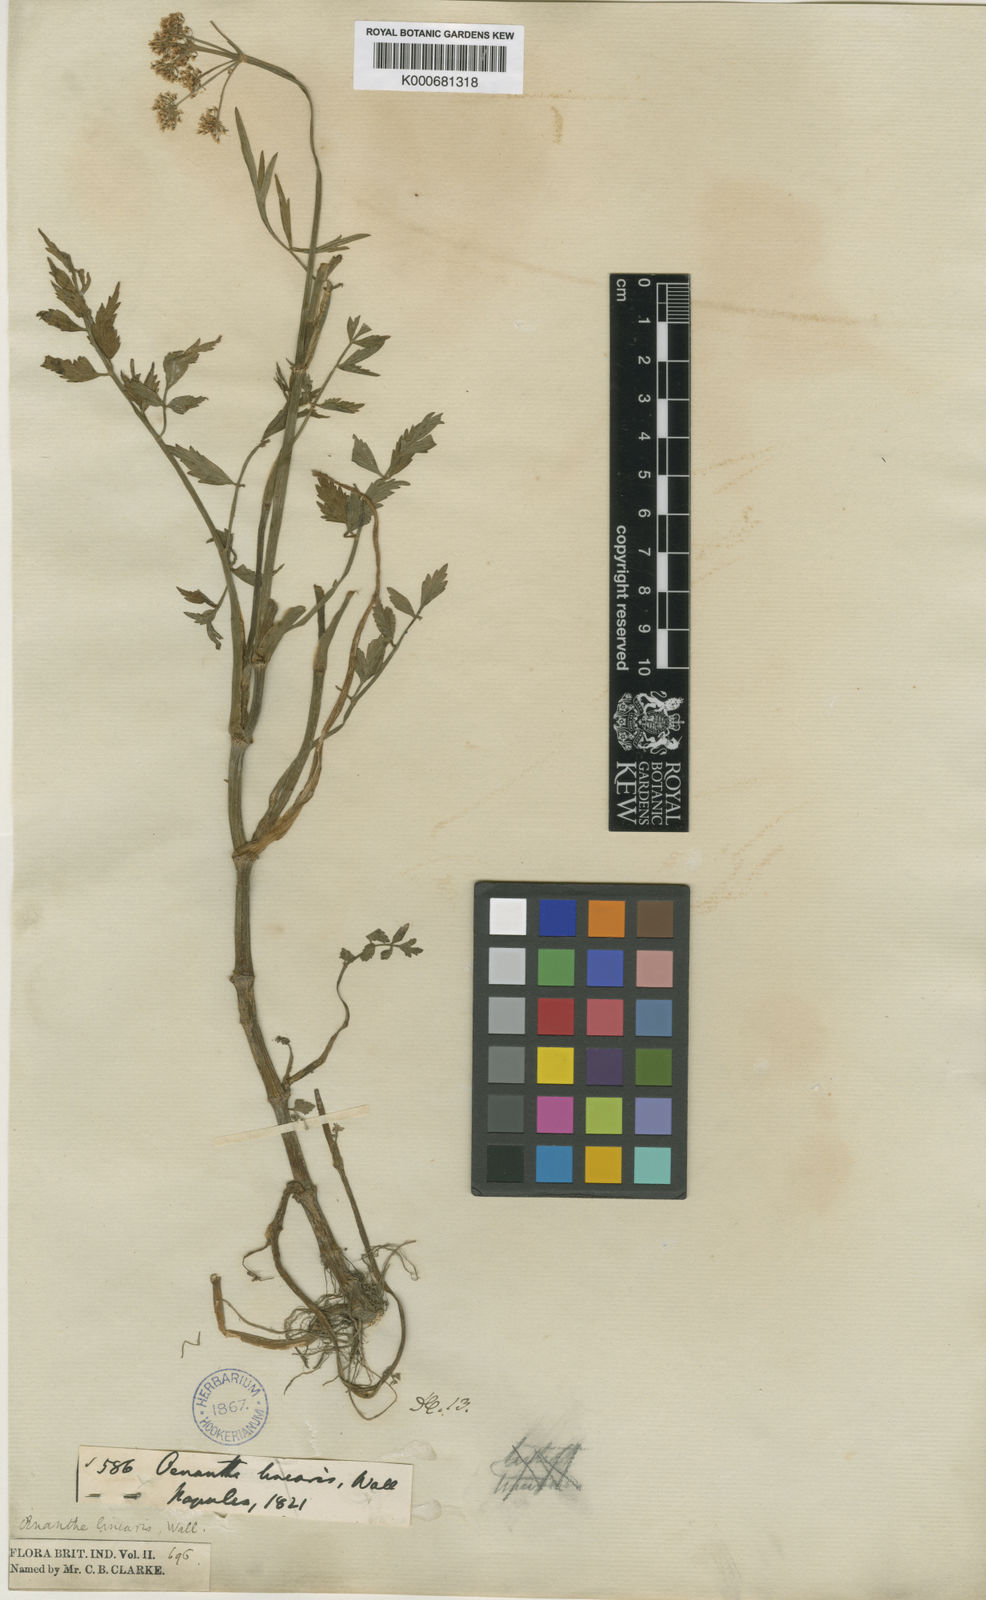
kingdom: Plantae
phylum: Tracheophyta
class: Magnoliopsida
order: Apiales
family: Apiaceae
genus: Oenanthe
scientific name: Oenanthe linearis
